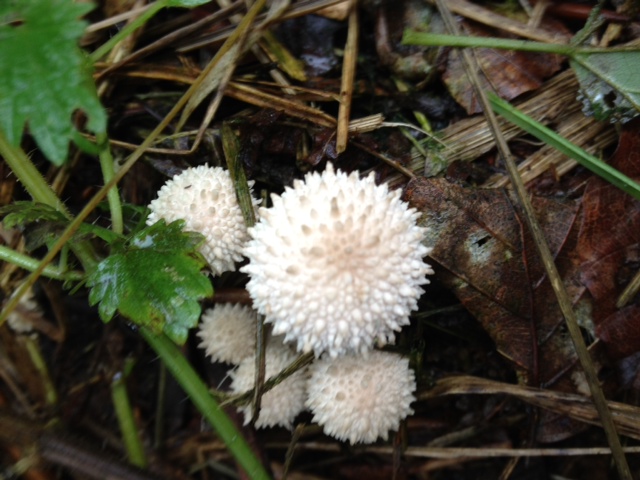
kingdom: Fungi
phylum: Basidiomycota
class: Agaricomycetes
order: Agaricales
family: Lycoperdaceae
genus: Lycoperdon
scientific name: Lycoperdon perlatum
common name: krystal-støvbold
